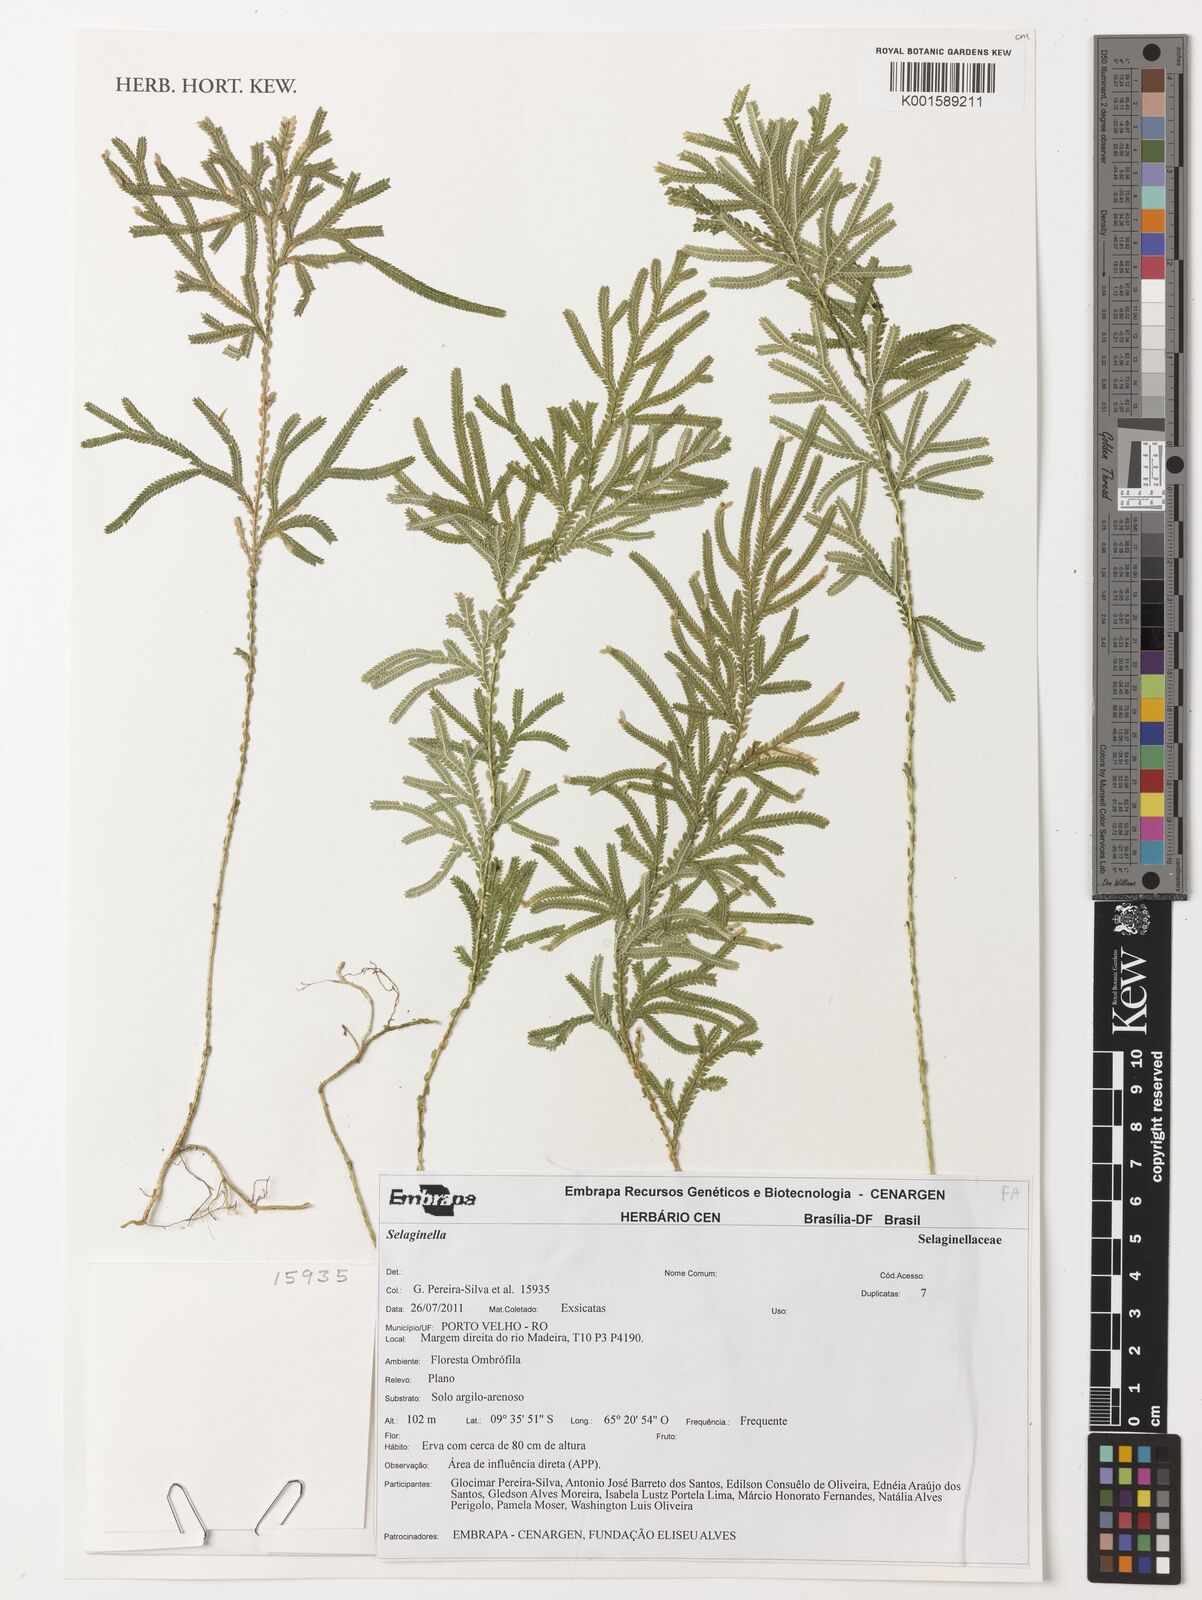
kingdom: Plantae
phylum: Tracheophyta
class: Lycopodiopsida
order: Selaginellales
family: Selaginellaceae
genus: Selaginella
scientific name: Selaginella
